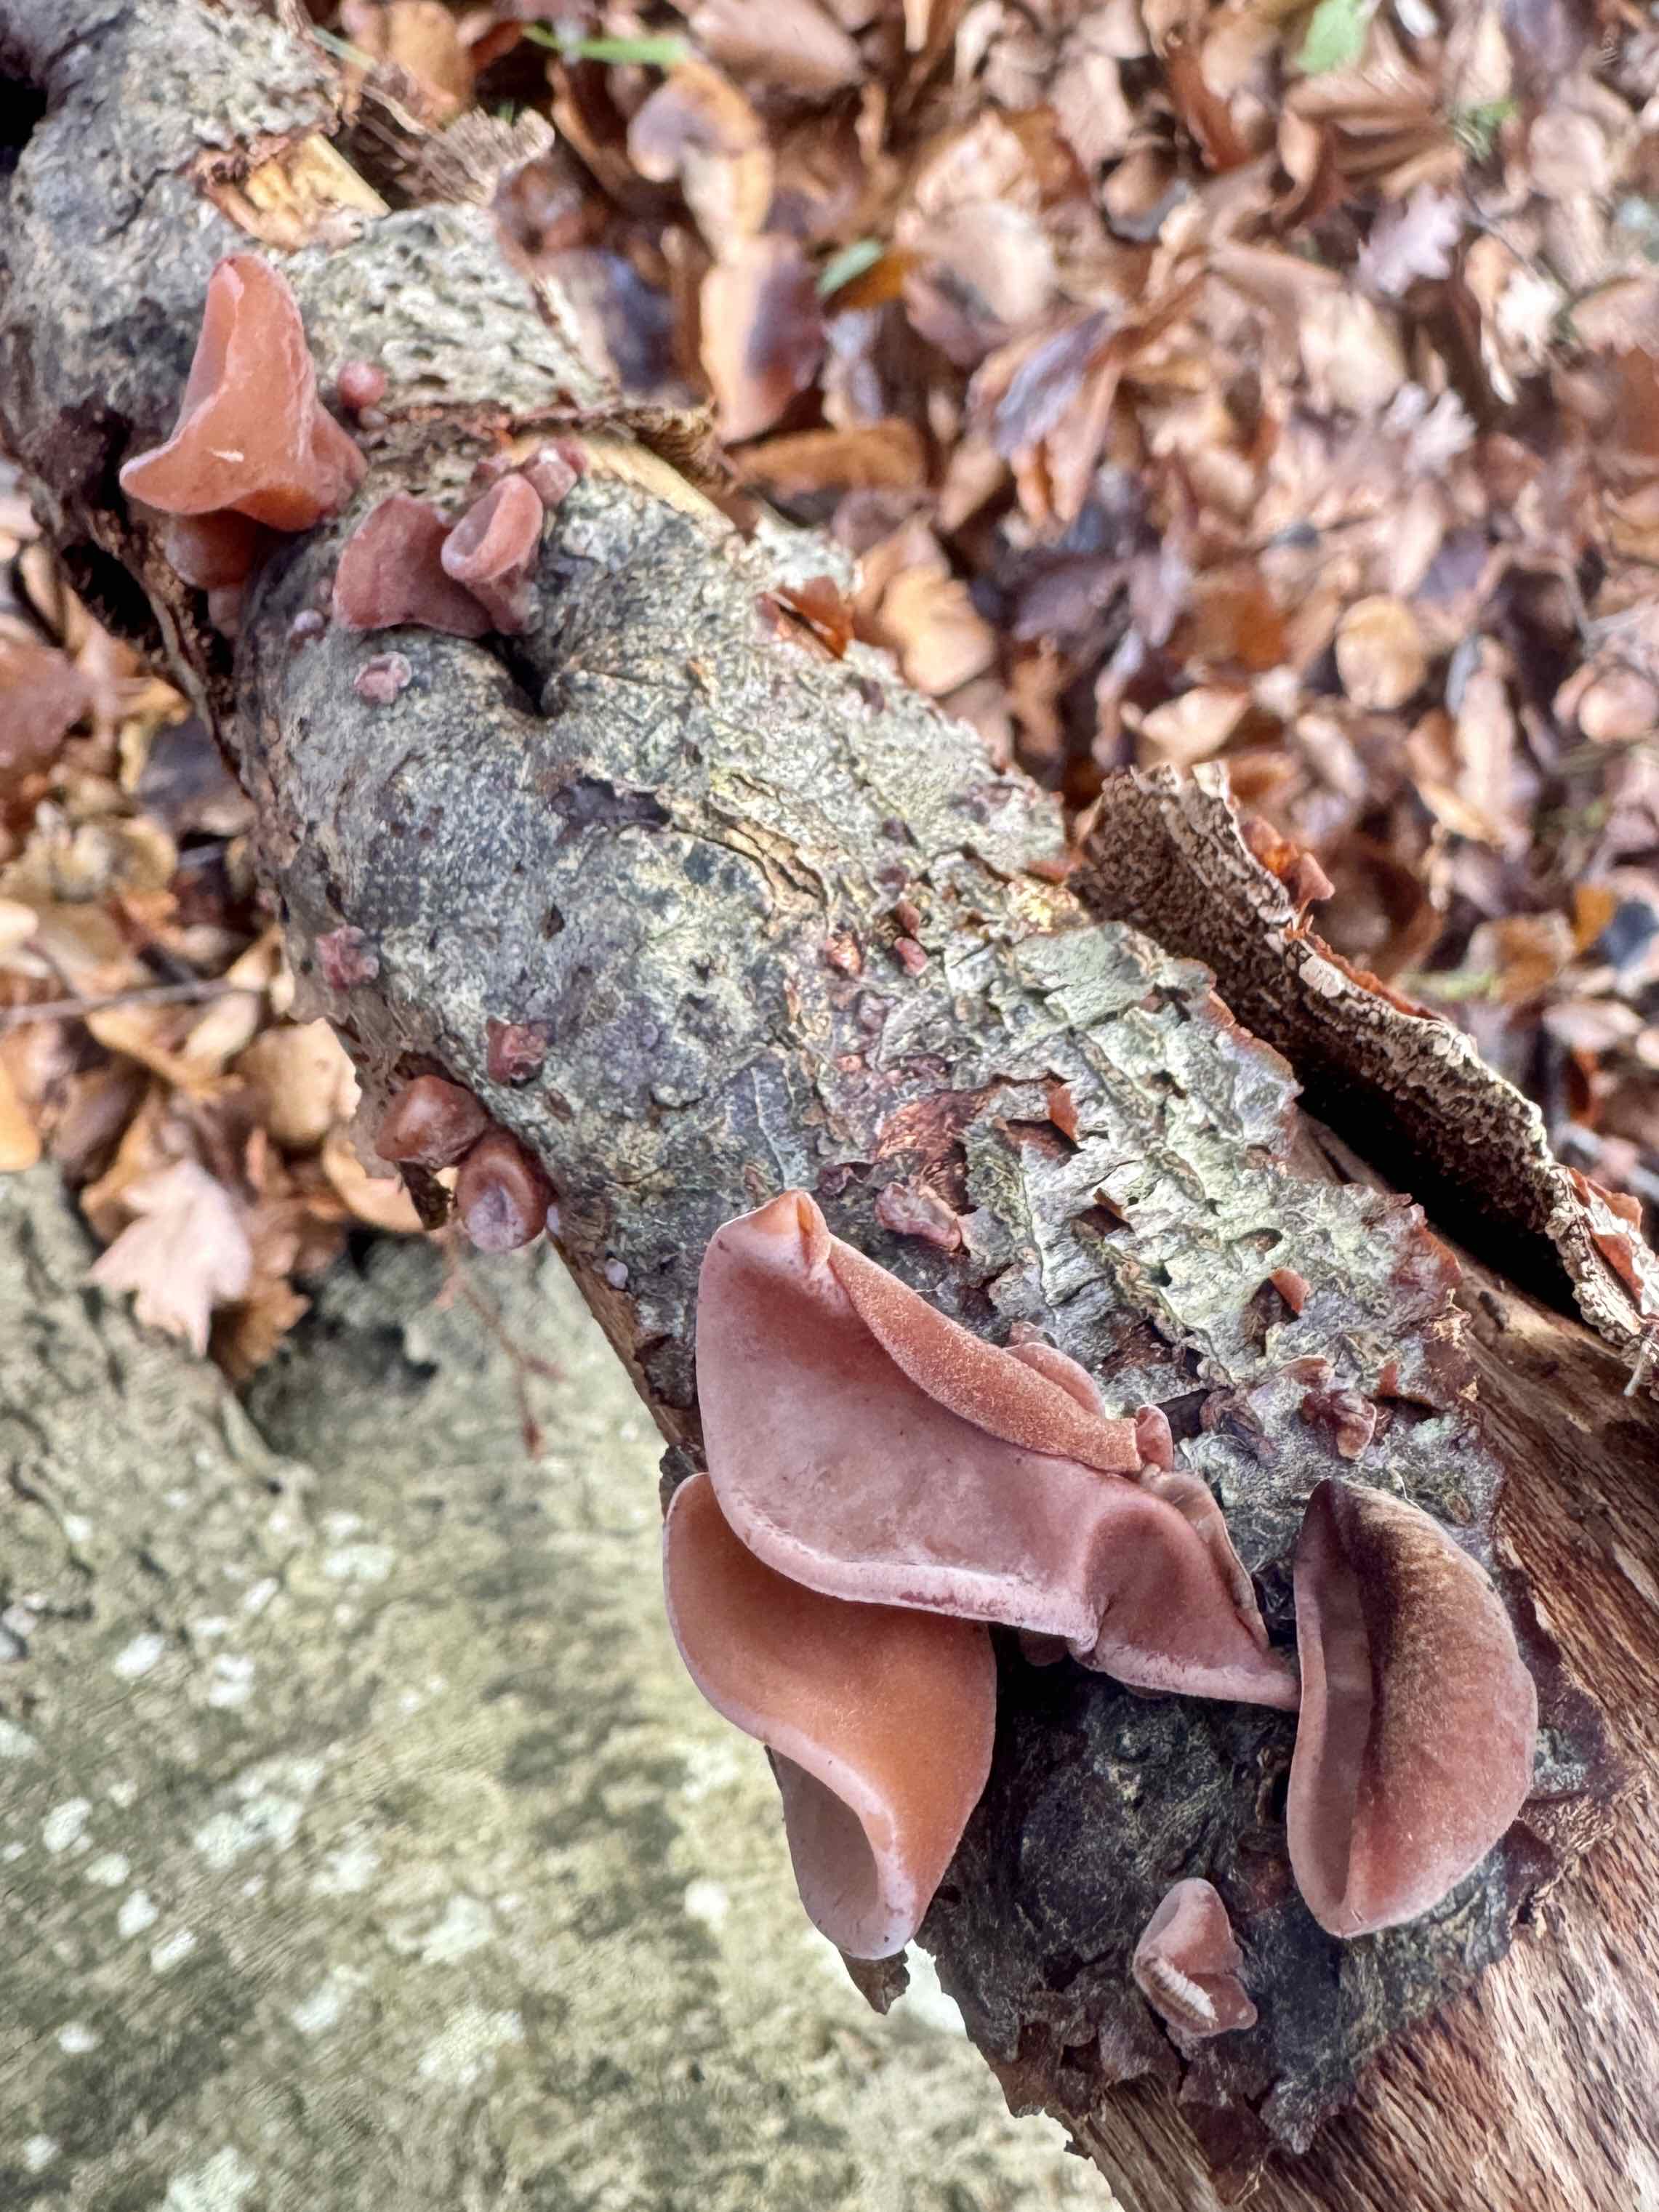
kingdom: Fungi
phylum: Basidiomycota
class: Agaricomycetes
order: Auriculariales
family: Auriculariaceae
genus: Auricularia
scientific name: Auricularia auricula-judae
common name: almindelig judasøre
